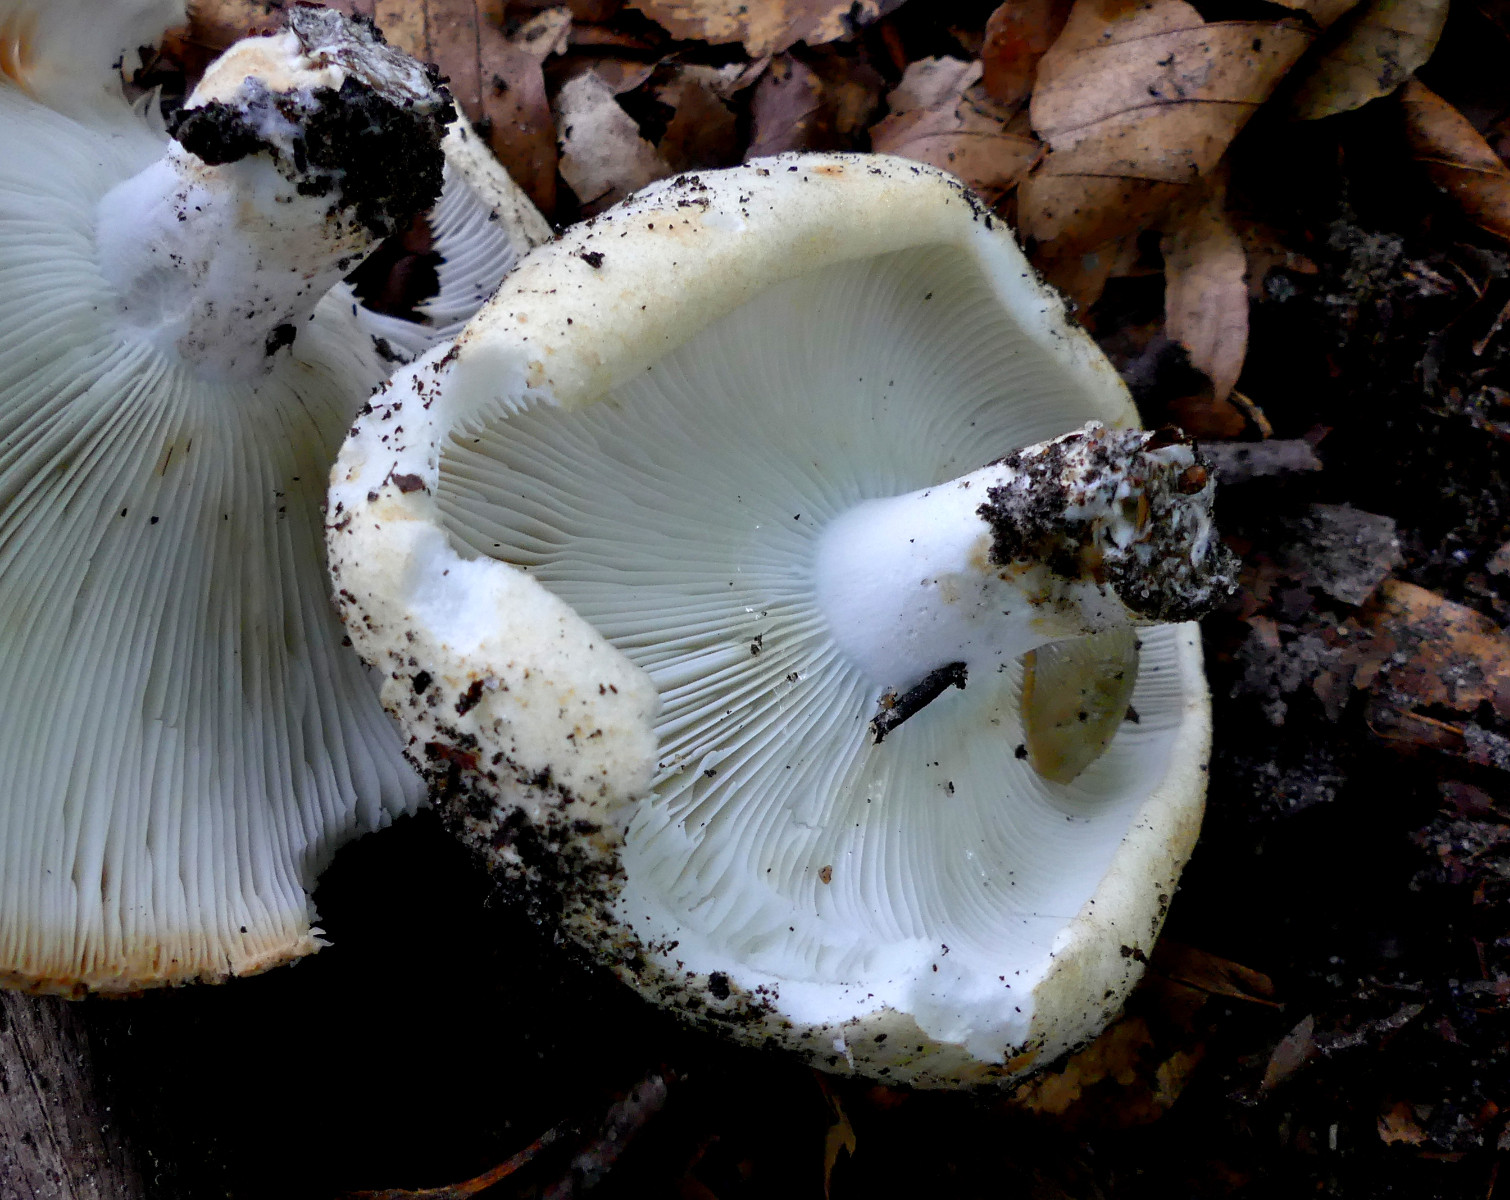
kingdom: Fungi
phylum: Basidiomycota
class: Agaricomycetes
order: Russulales
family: Russulaceae
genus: Russula
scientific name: Russula chloroides
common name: grønhalset tragt-skørhat
